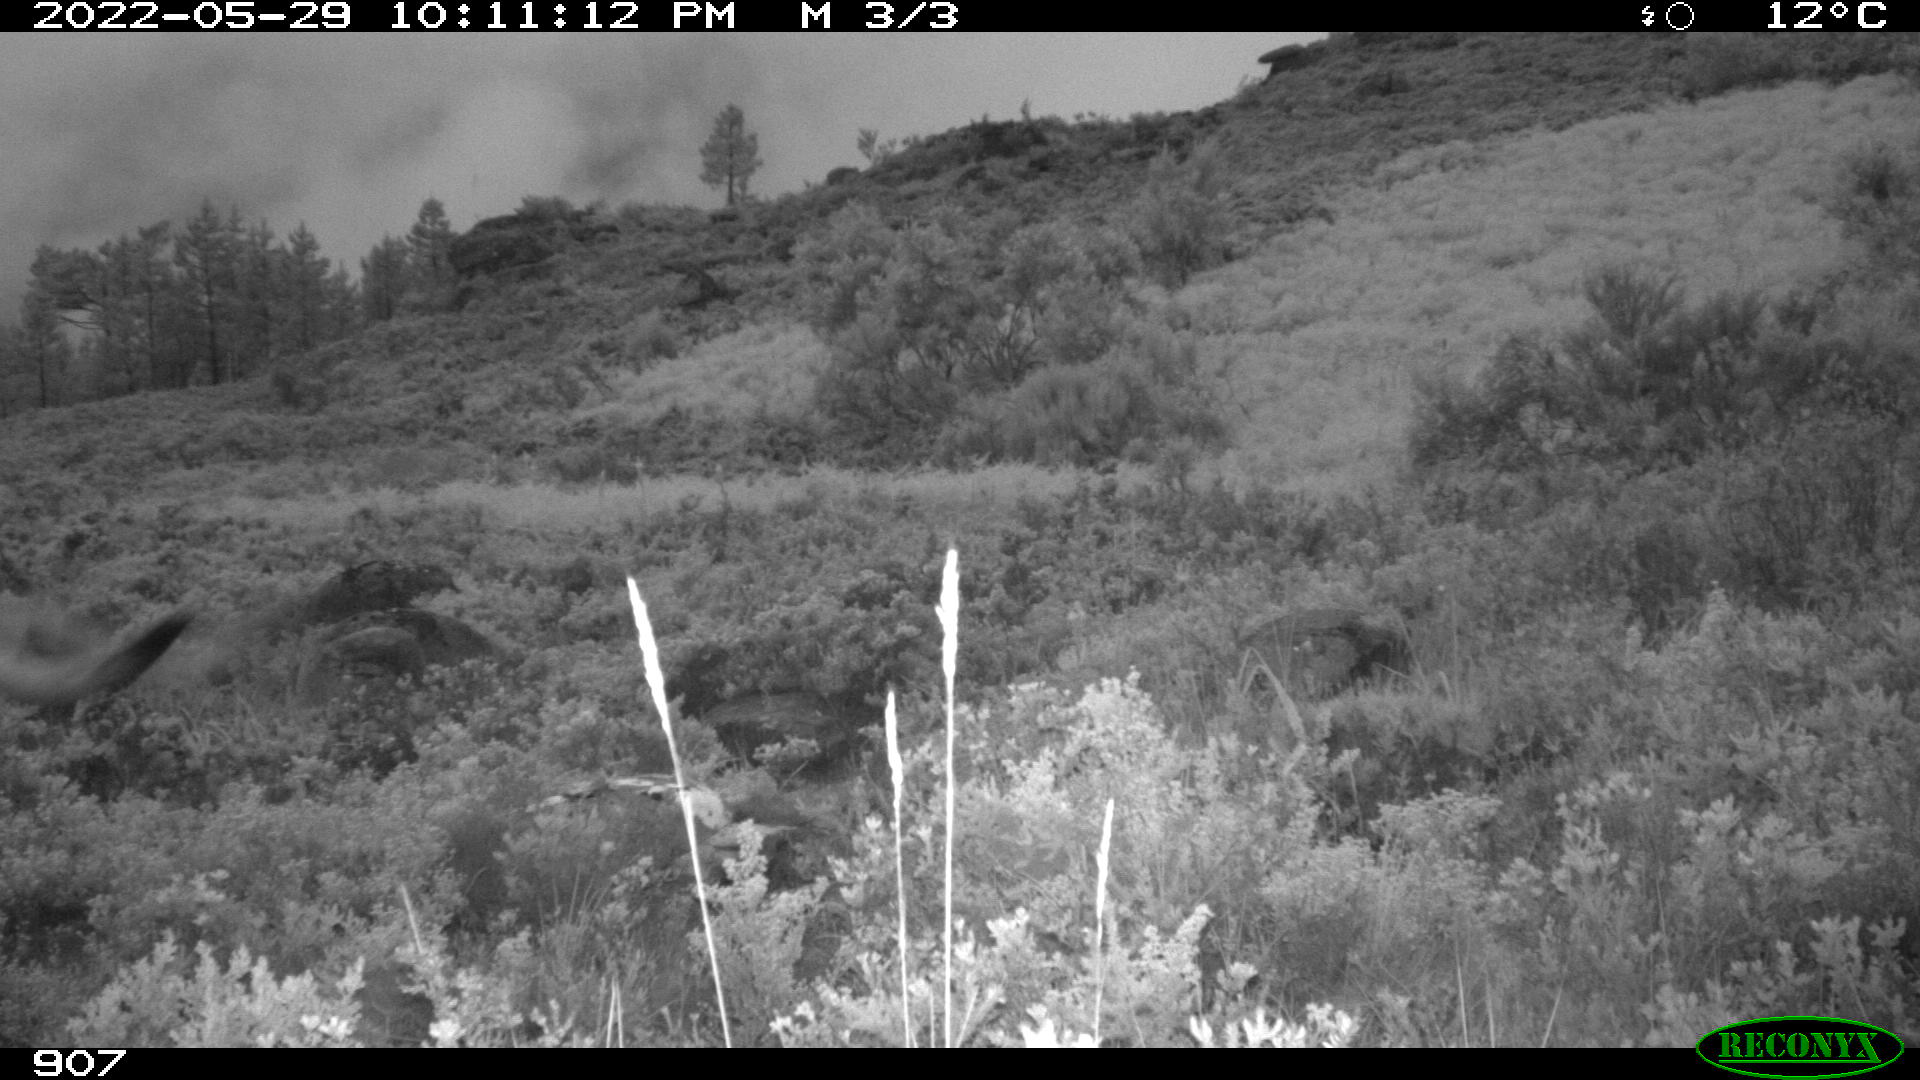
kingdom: Animalia
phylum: Chordata
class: Mammalia
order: Artiodactyla
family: Bovidae
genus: Bos
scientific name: Bos taurus
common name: Domesticated cattle
